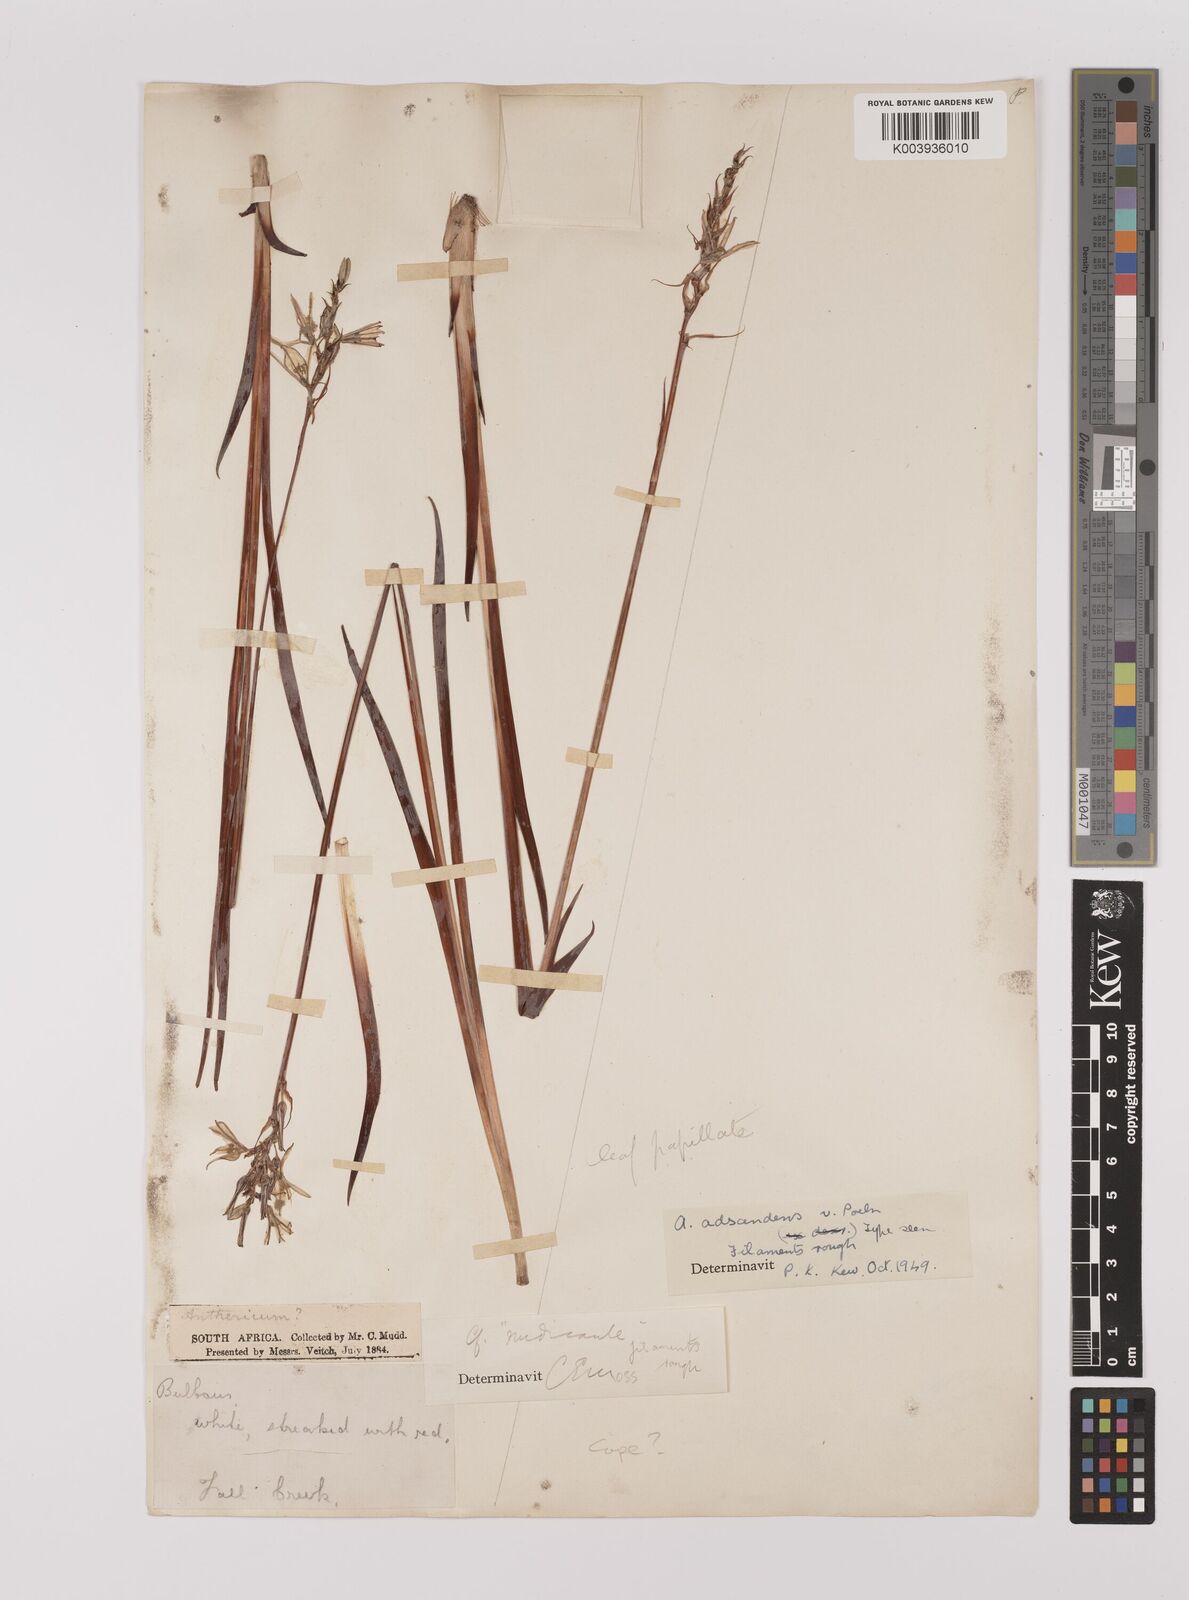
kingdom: Plantae
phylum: Tracheophyta
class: Liliopsida
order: Asparagales
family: Asparagaceae
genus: Chlorophytum
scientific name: Chlorophytum cooperi
